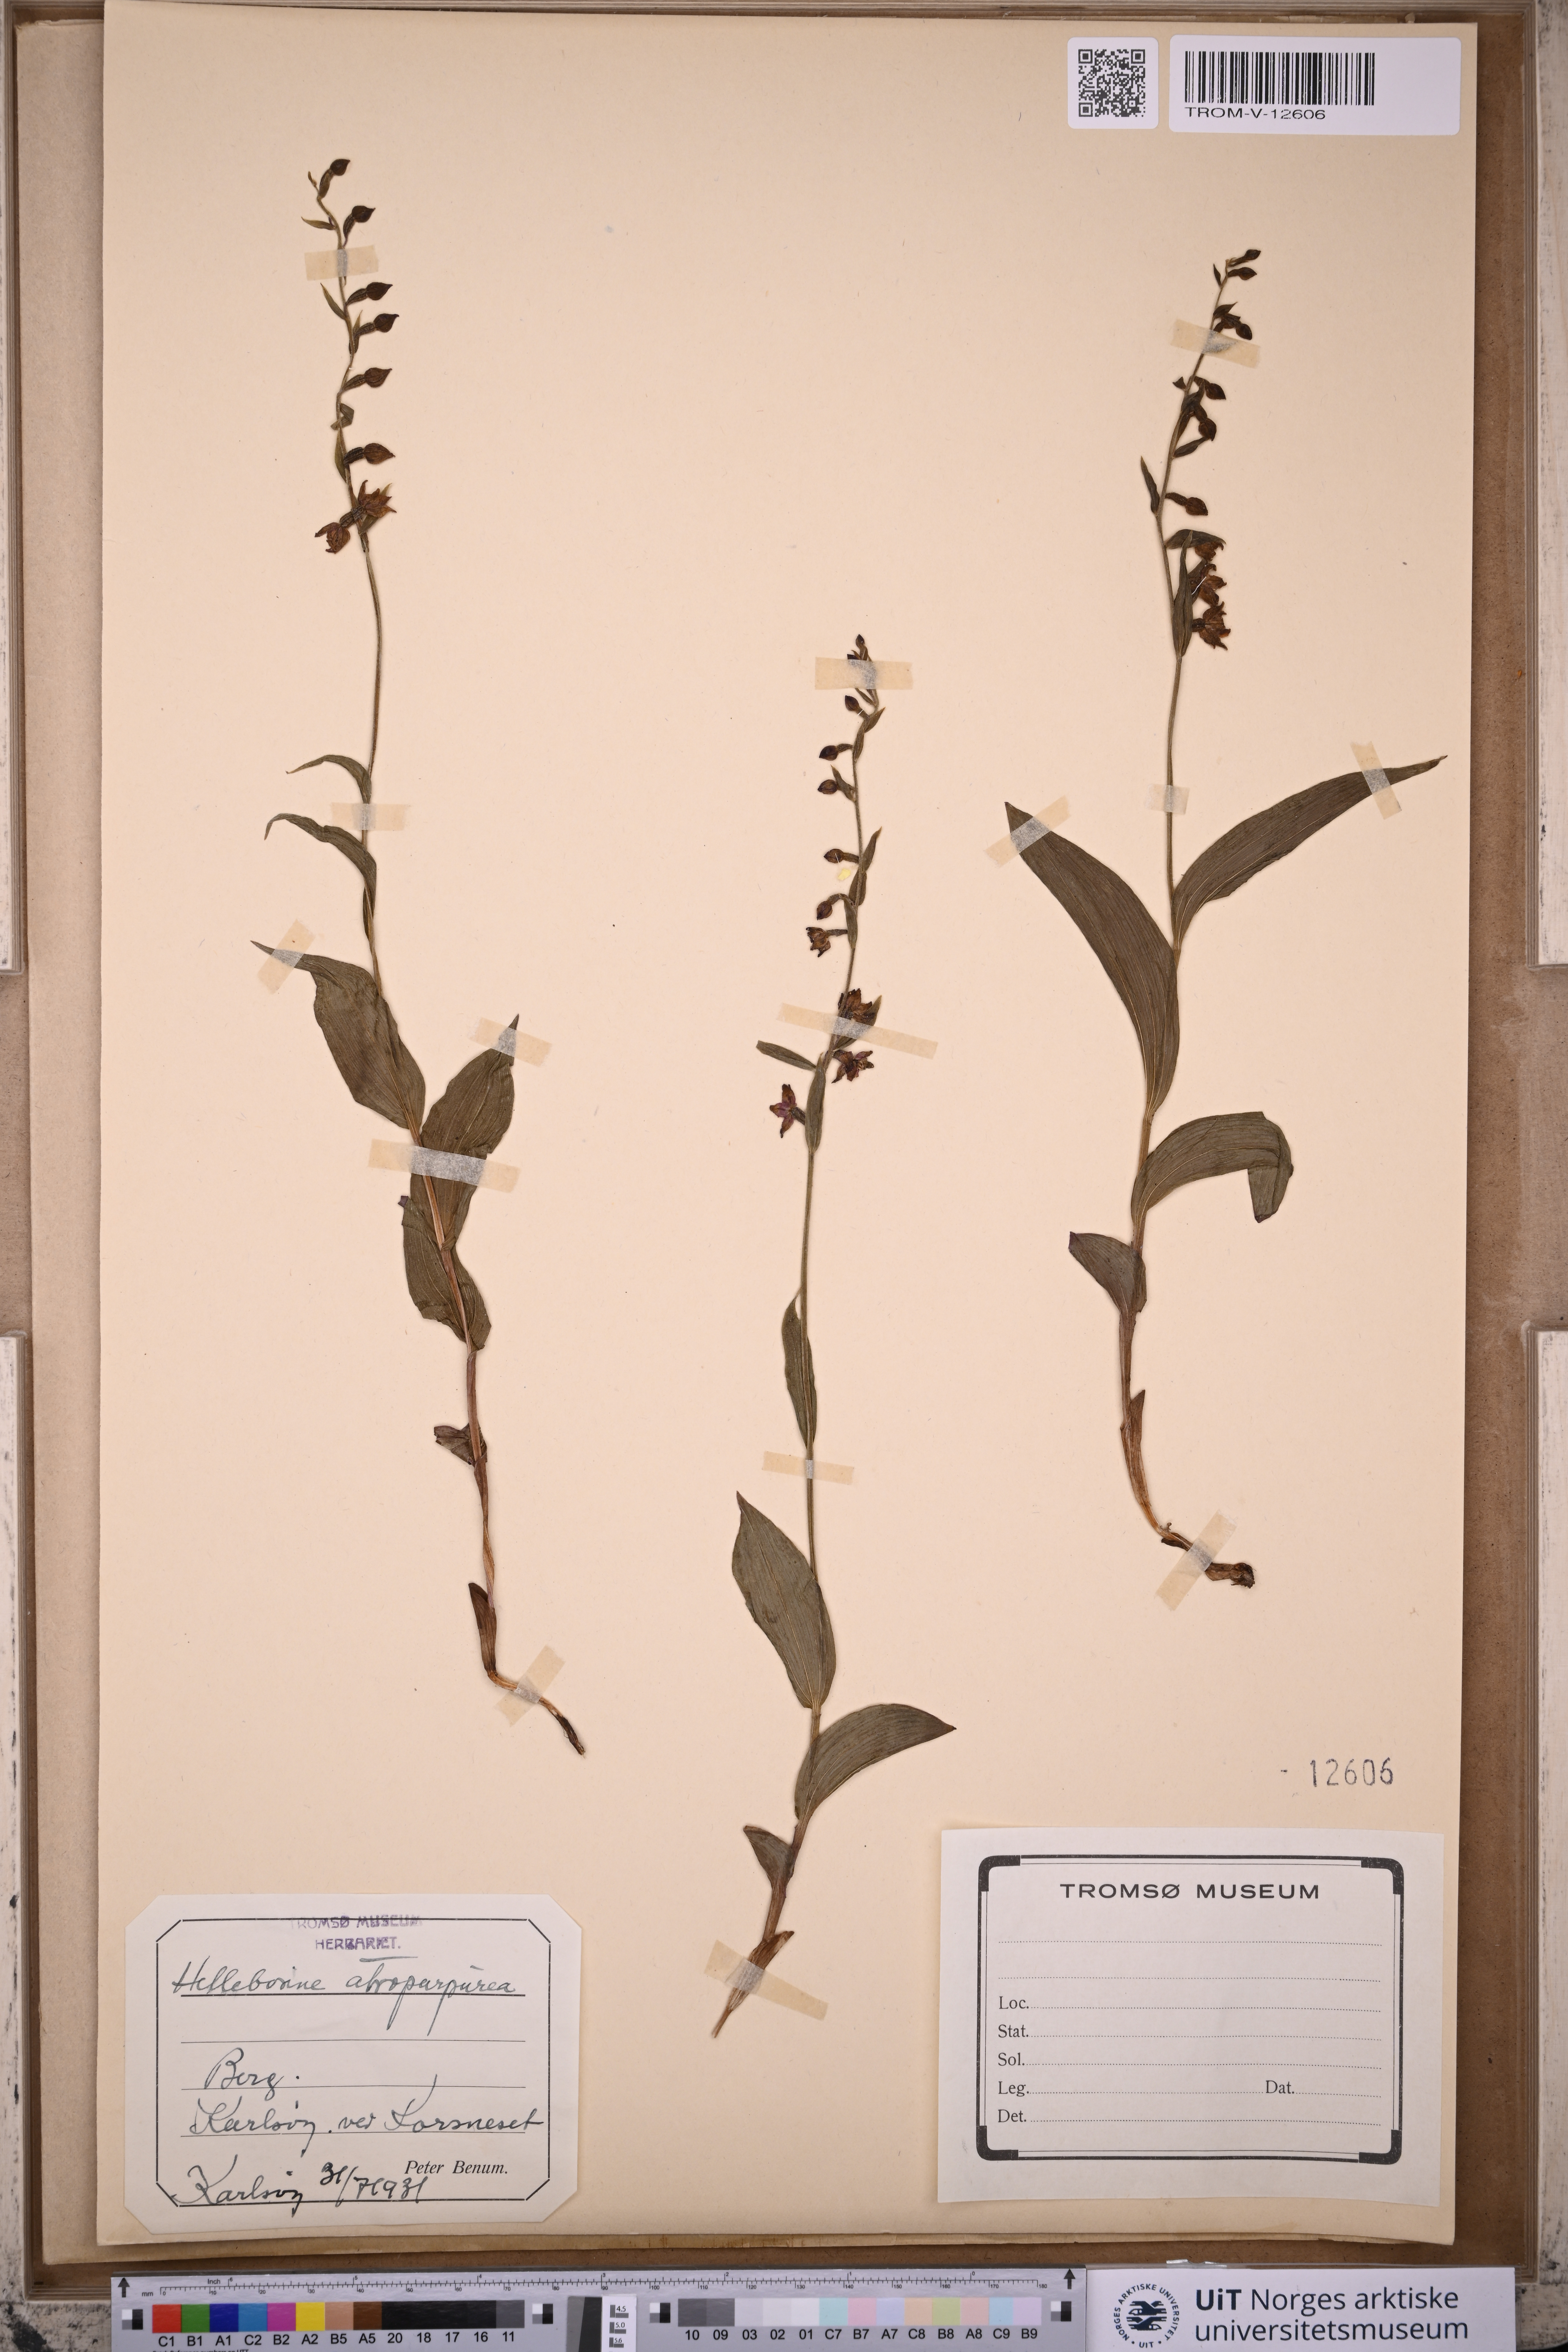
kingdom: Plantae
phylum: Tracheophyta
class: Liliopsida
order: Asparagales
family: Orchidaceae
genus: Epipactis
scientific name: Epipactis atrorubens
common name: Dark-red helleborine
